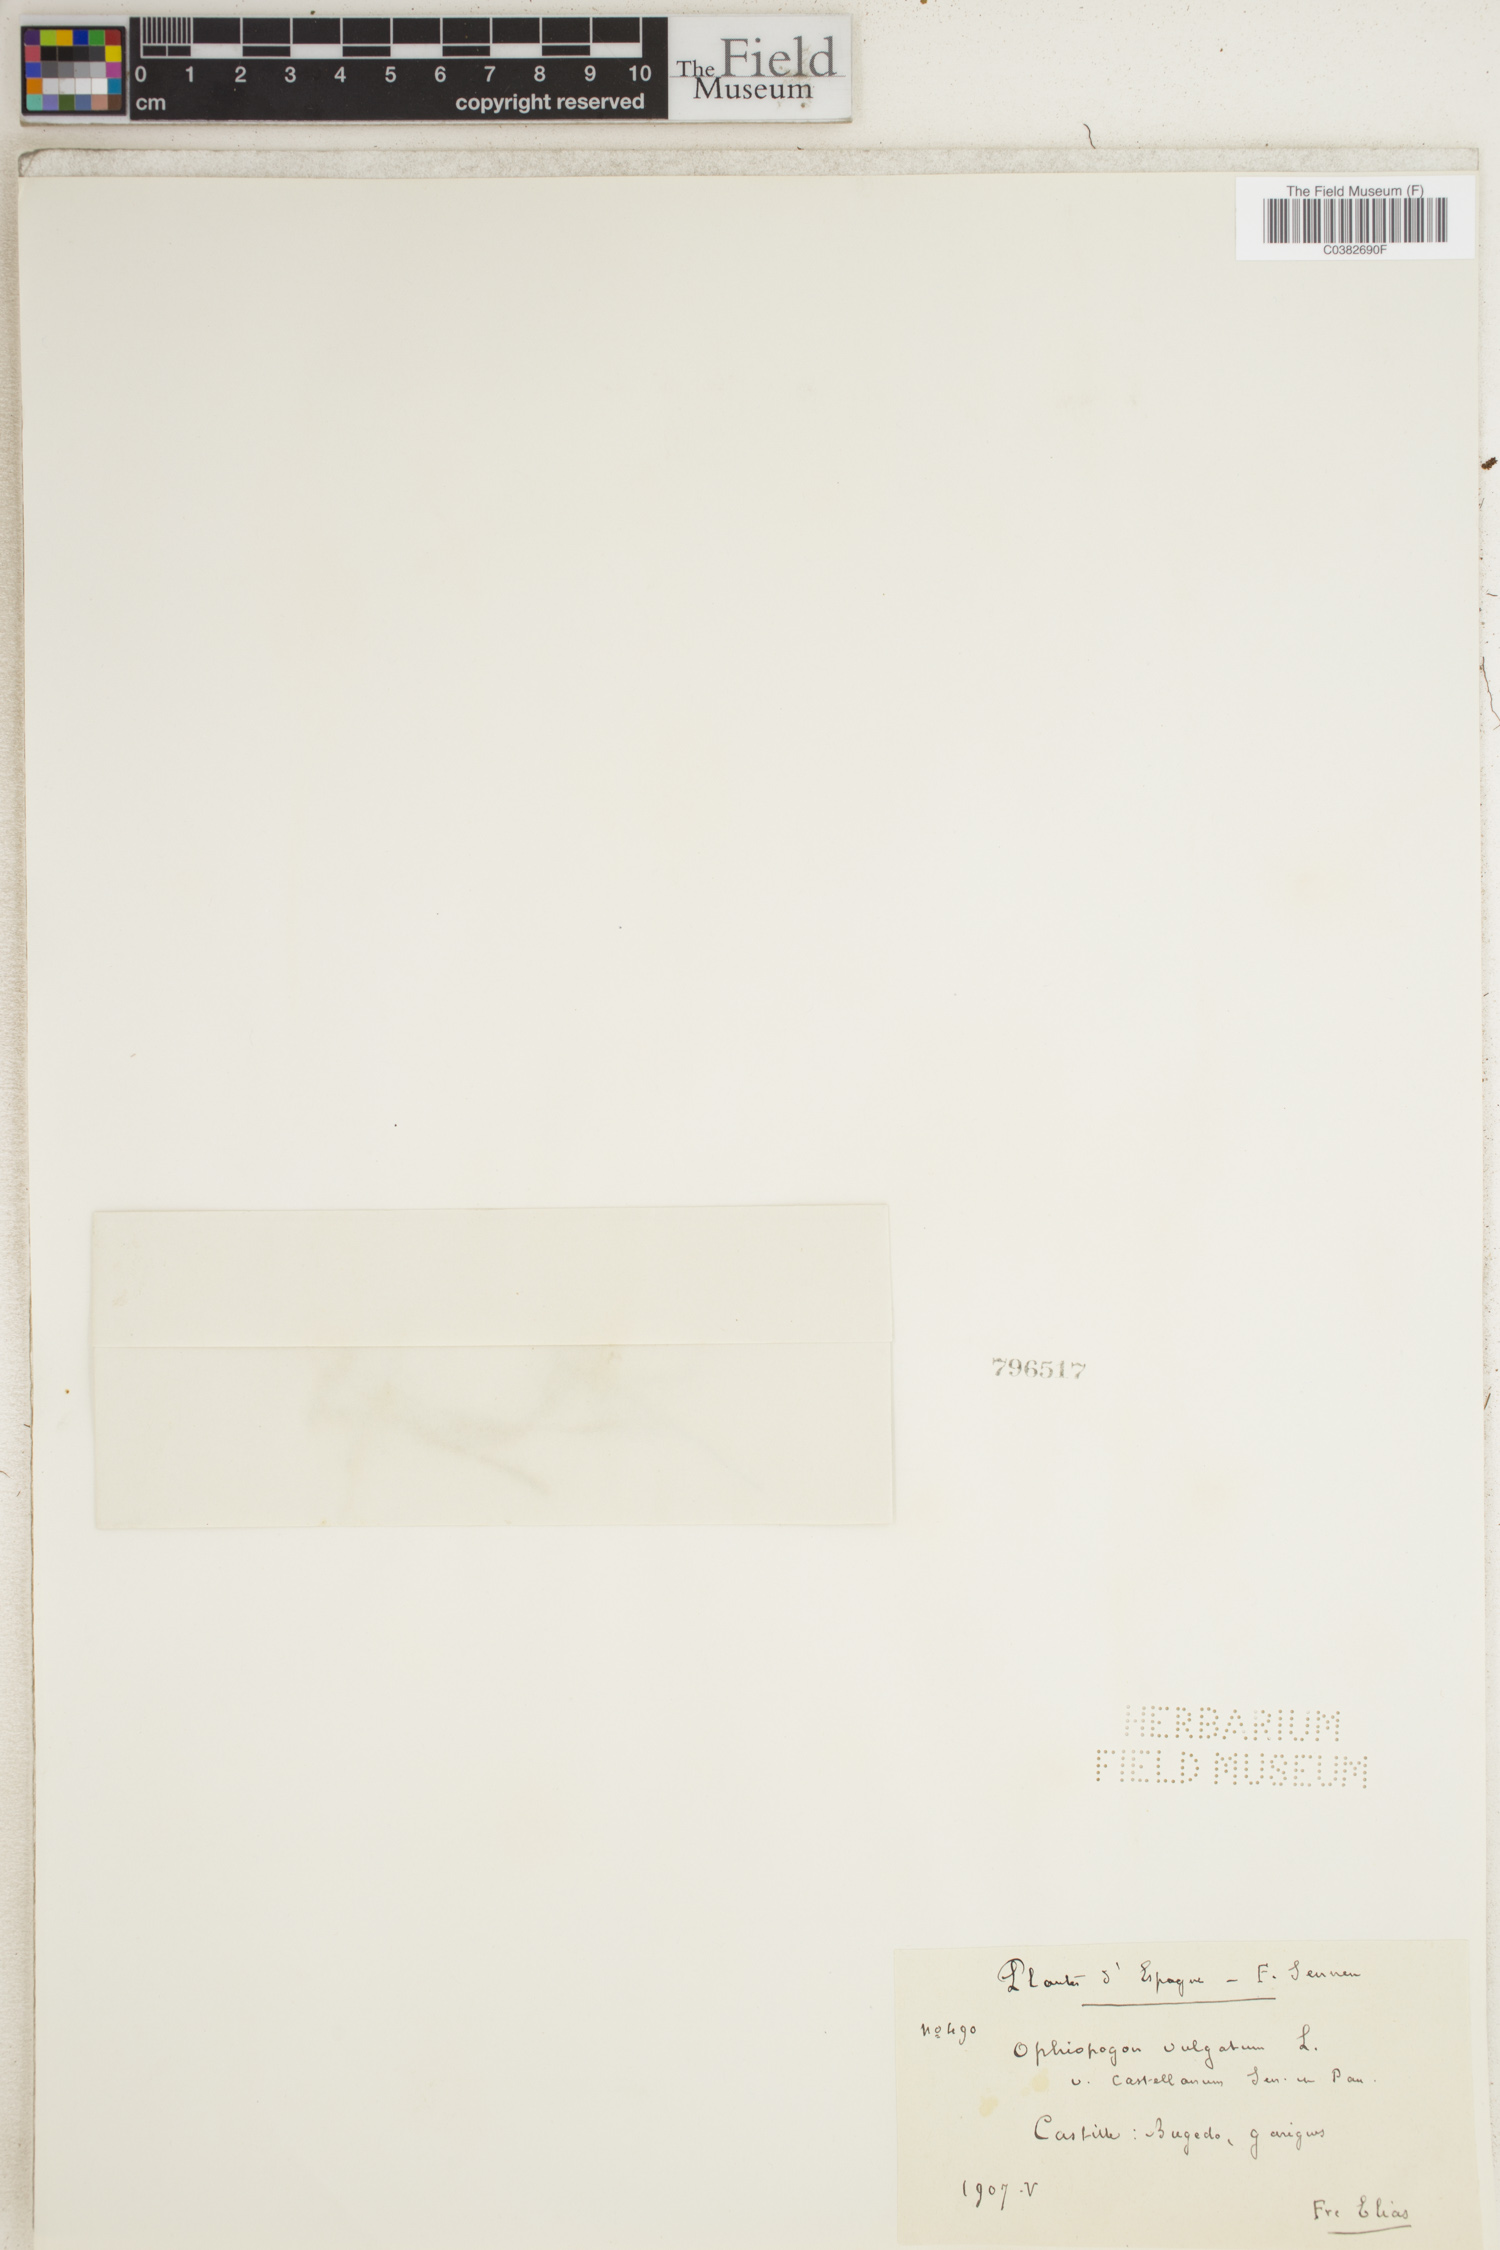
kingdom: Plantae
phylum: Tracheophyta
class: Polypodiopsida
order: Ophioglossales
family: Ophioglossaceae
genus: Ophioglossum
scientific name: Ophioglossum vulgatum
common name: Adder's-tongue
